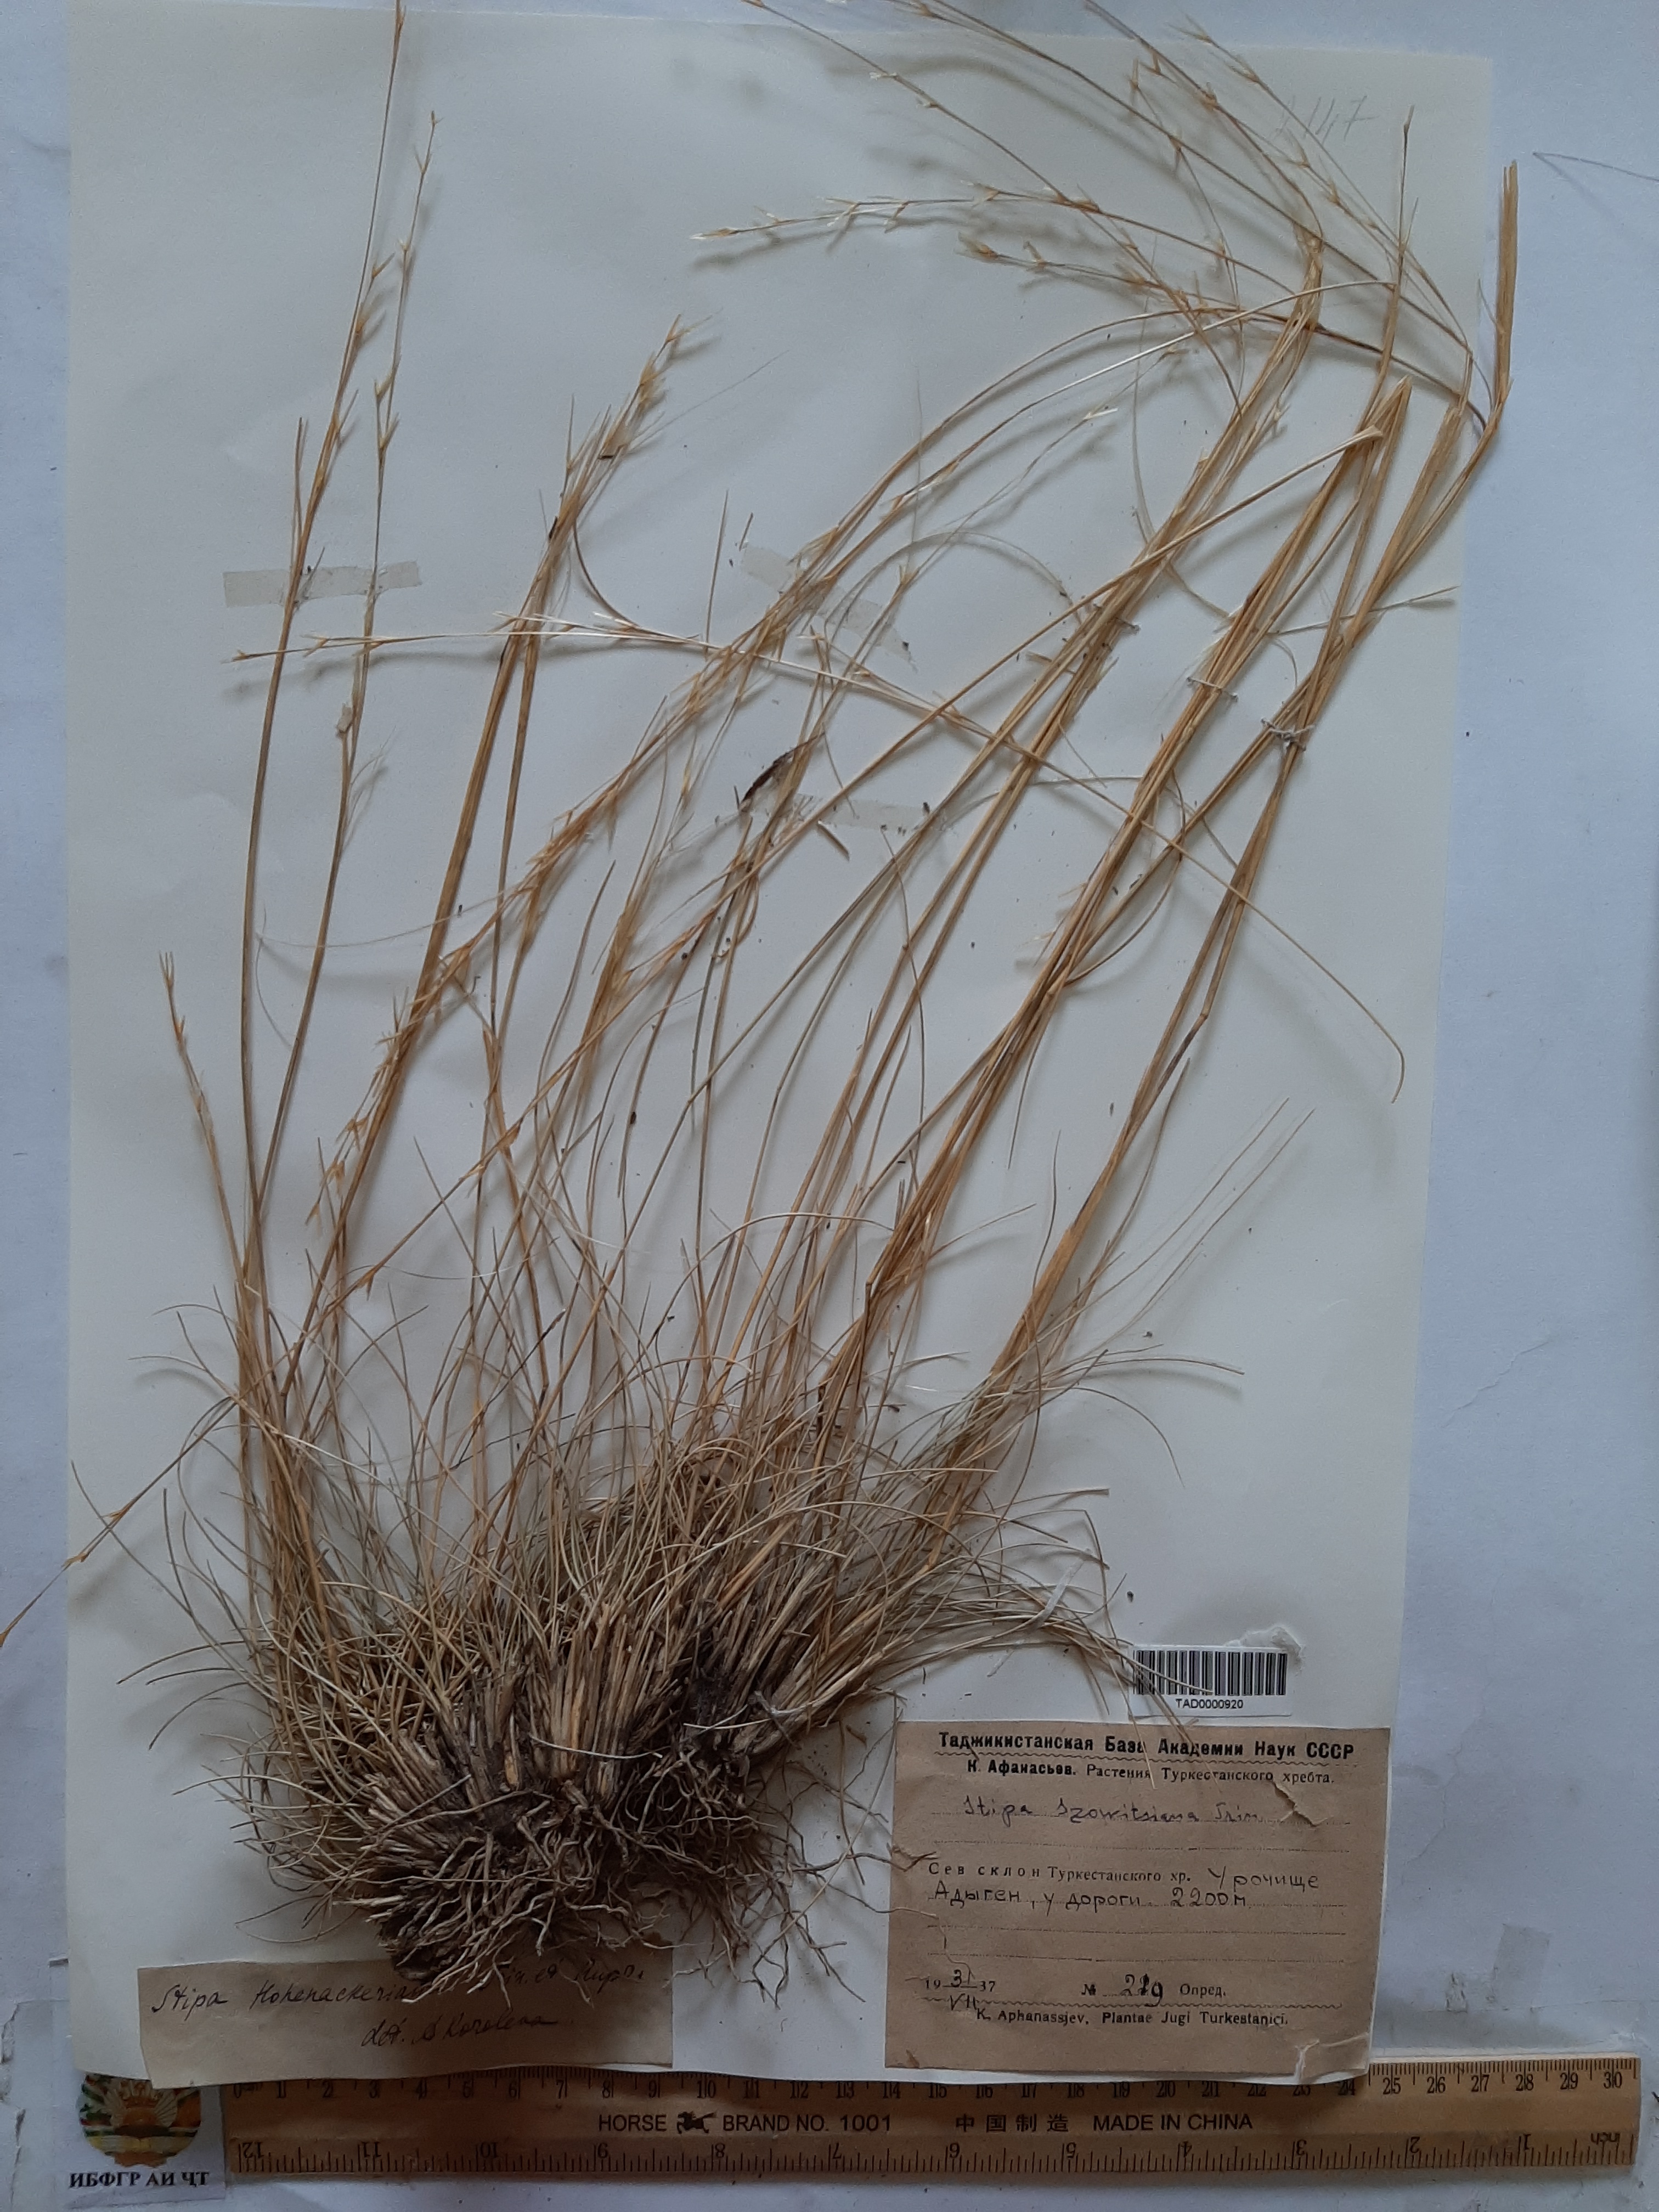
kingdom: Plantae
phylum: Tracheophyta
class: Liliopsida
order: Poales
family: Poaceae
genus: Stipa
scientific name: Stipa hohenackeriana
